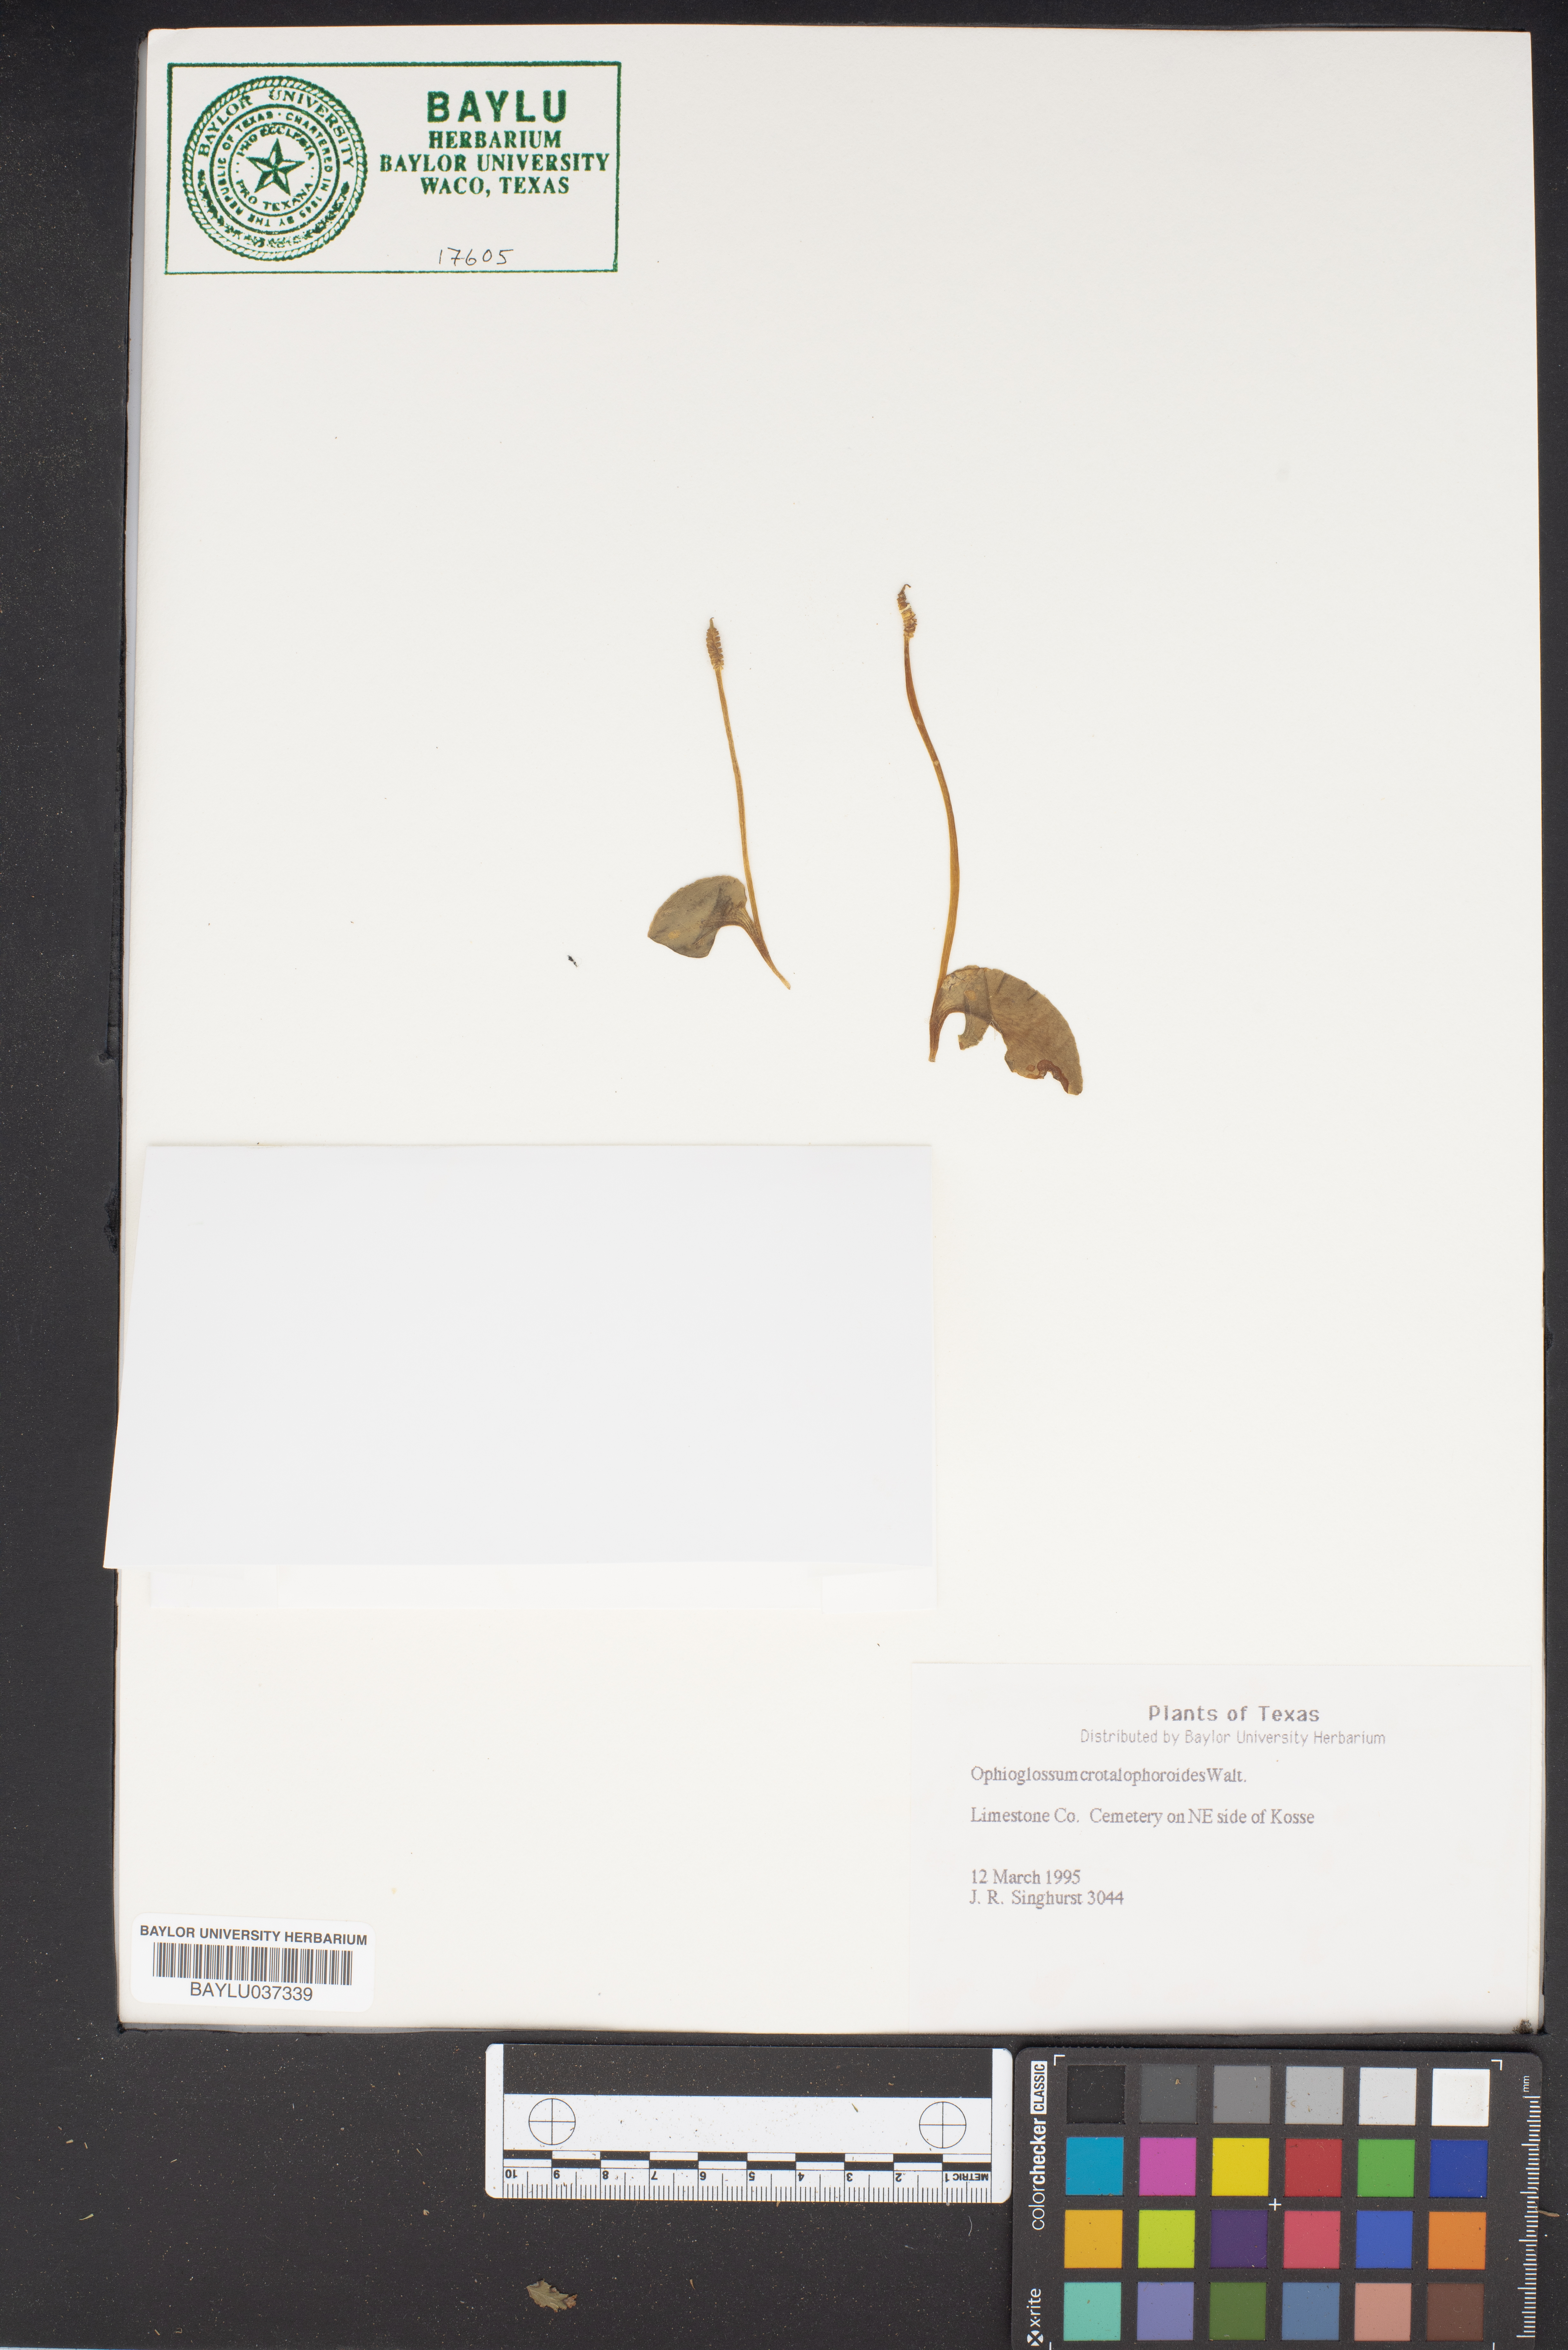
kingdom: Plantae
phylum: Tracheophyta
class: Polypodiopsida
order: Ophioglossales
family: Ophioglossaceae
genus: Ophioglossum
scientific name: Ophioglossum crotalophoroides
